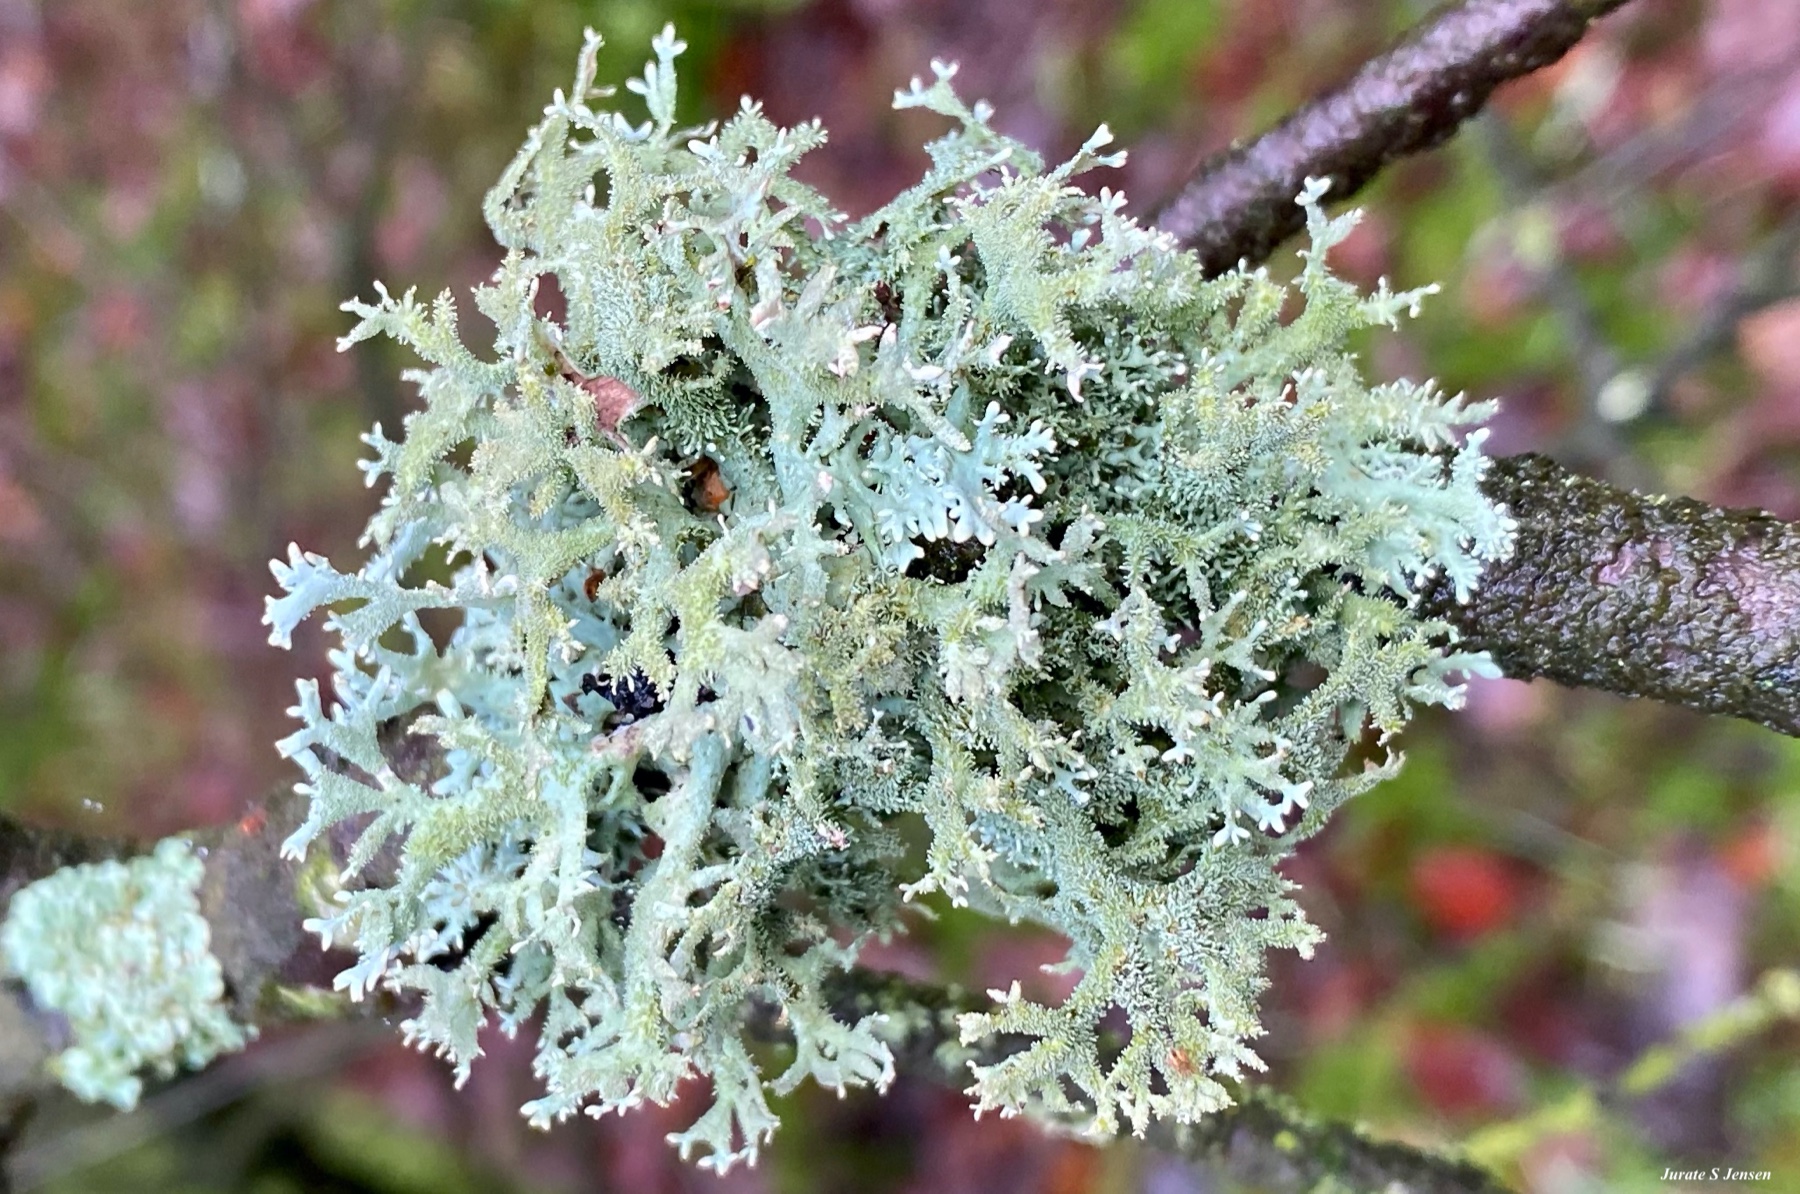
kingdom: Fungi
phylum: Ascomycota
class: Lecanoromycetes
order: Lecanorales
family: Parmeliaceae
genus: Pseudevernia
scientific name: Pseudevernia furfuracea
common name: grå fyrrelav
